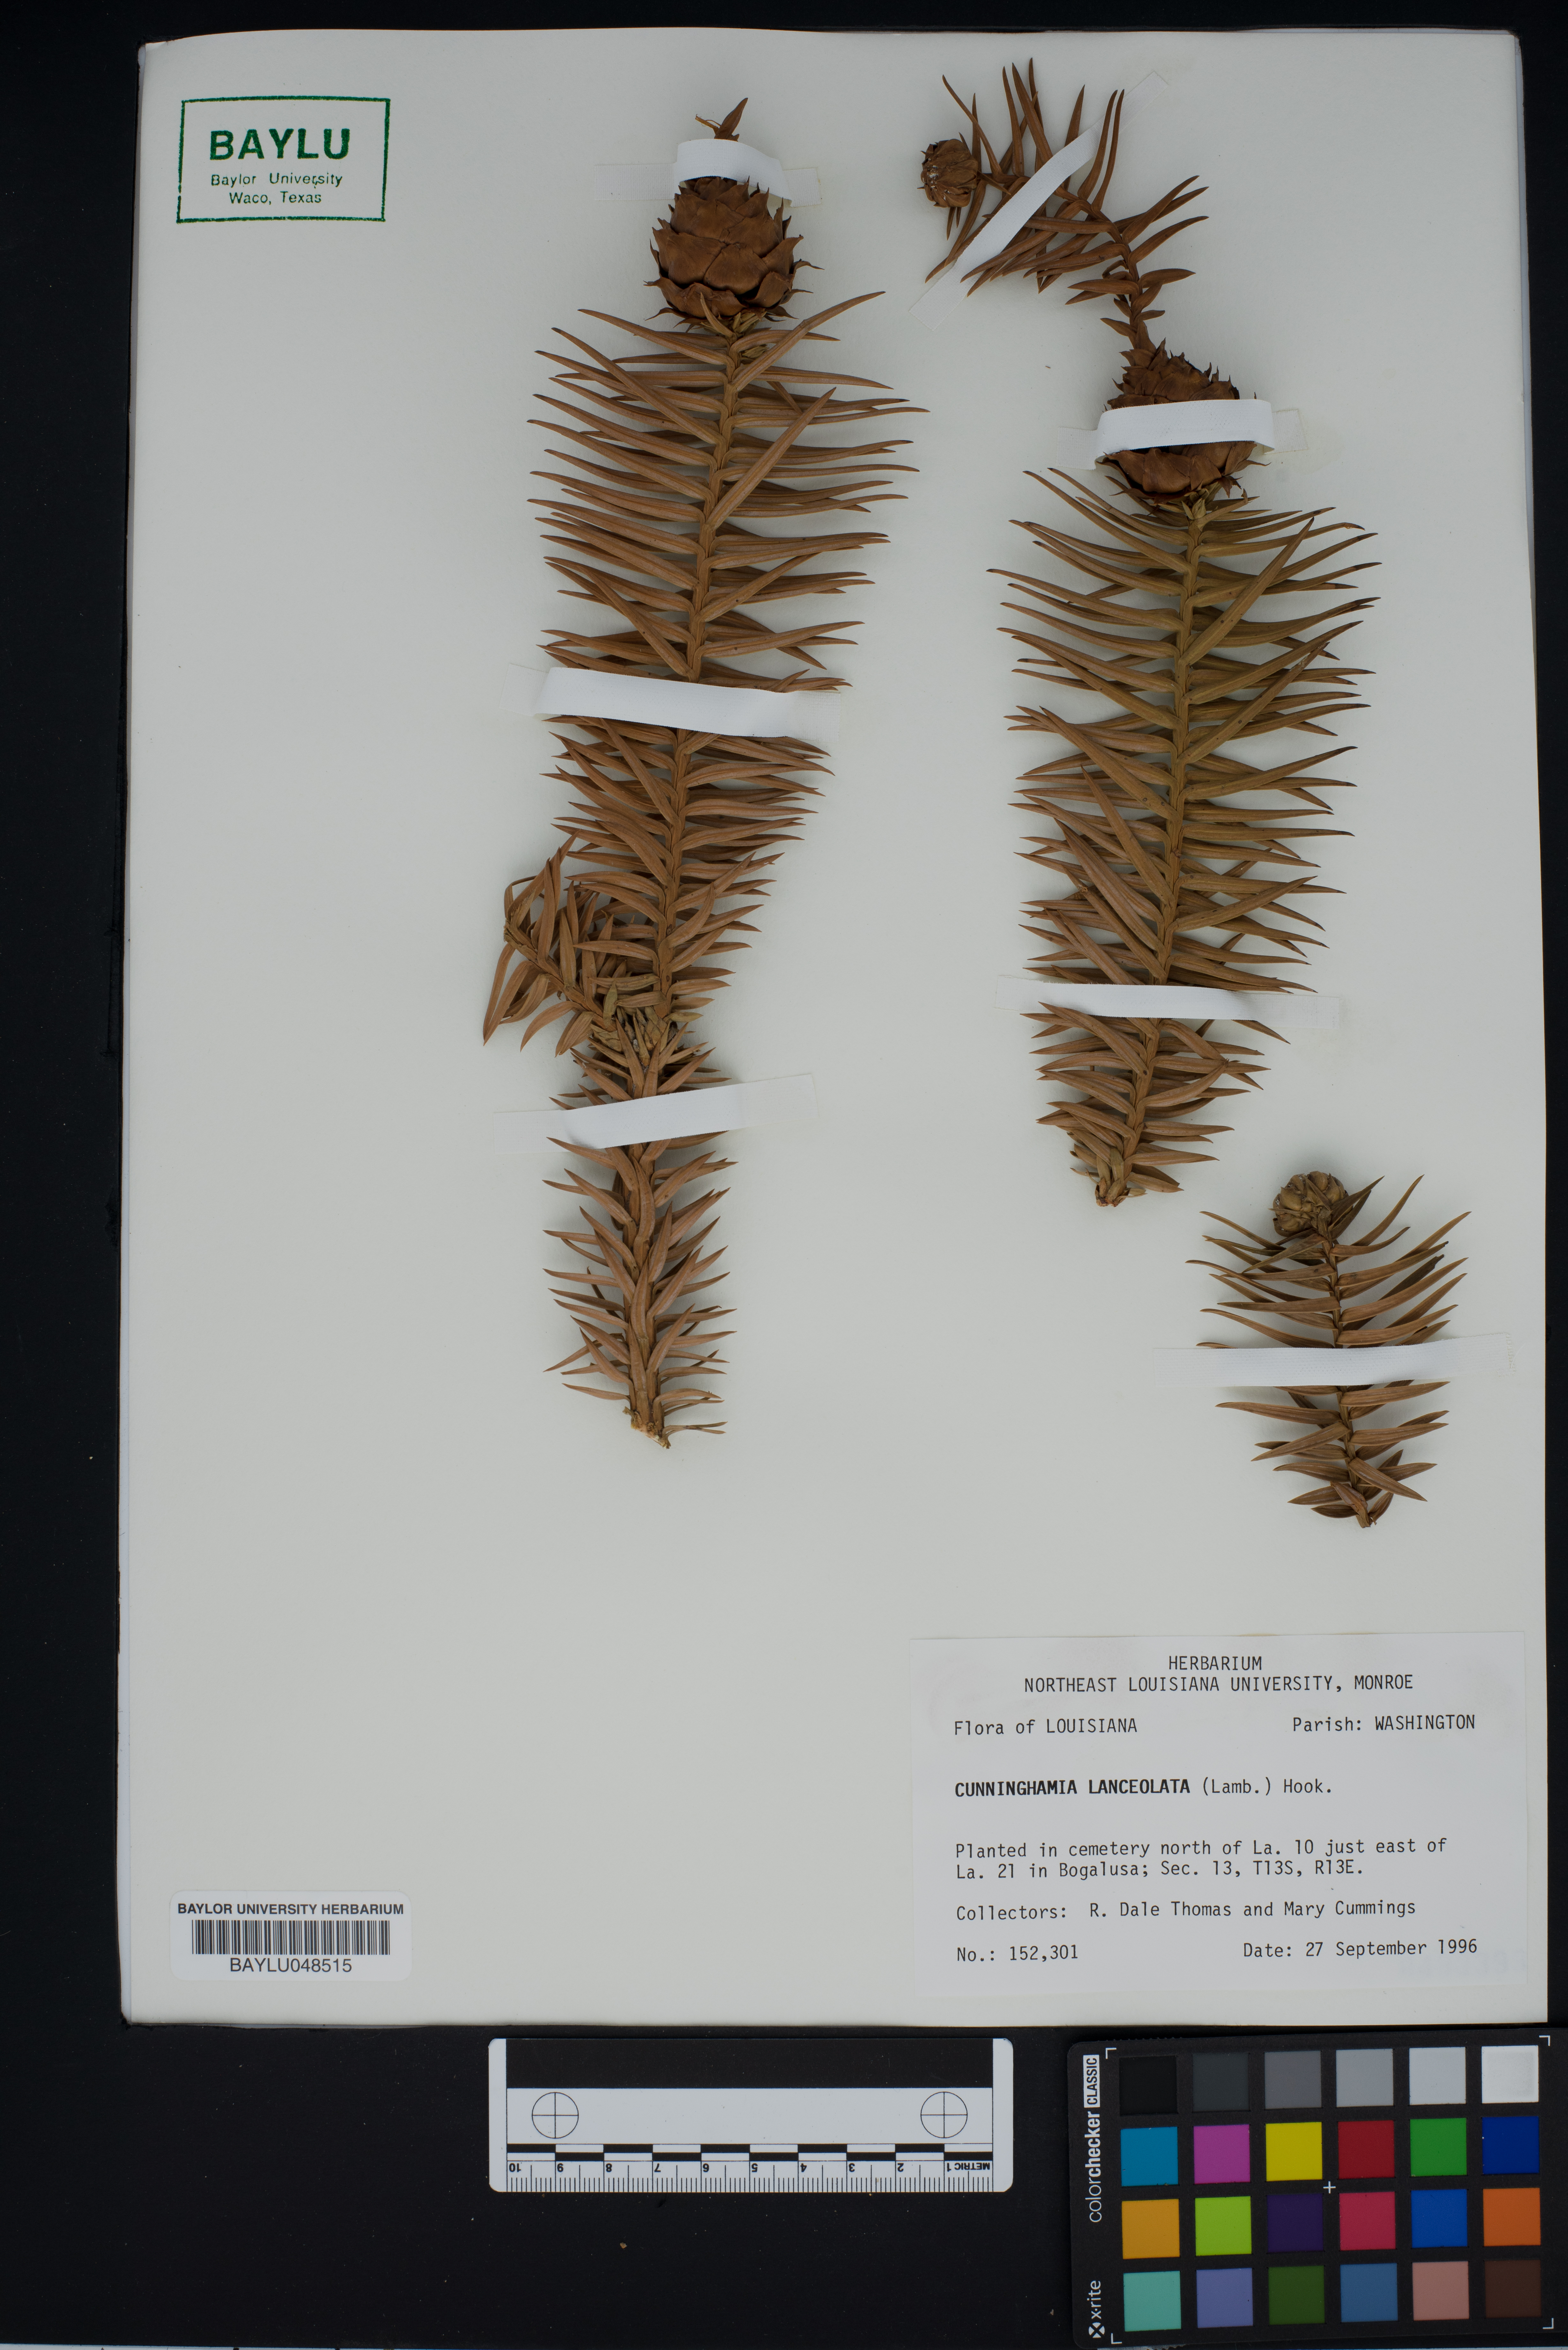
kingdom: Plantae
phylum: Tracheophyta
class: Pinopsida
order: Pinales
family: Cupressaceae
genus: Cunninghamia
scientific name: Cunninghamia lanceolata
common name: Chinese fir
